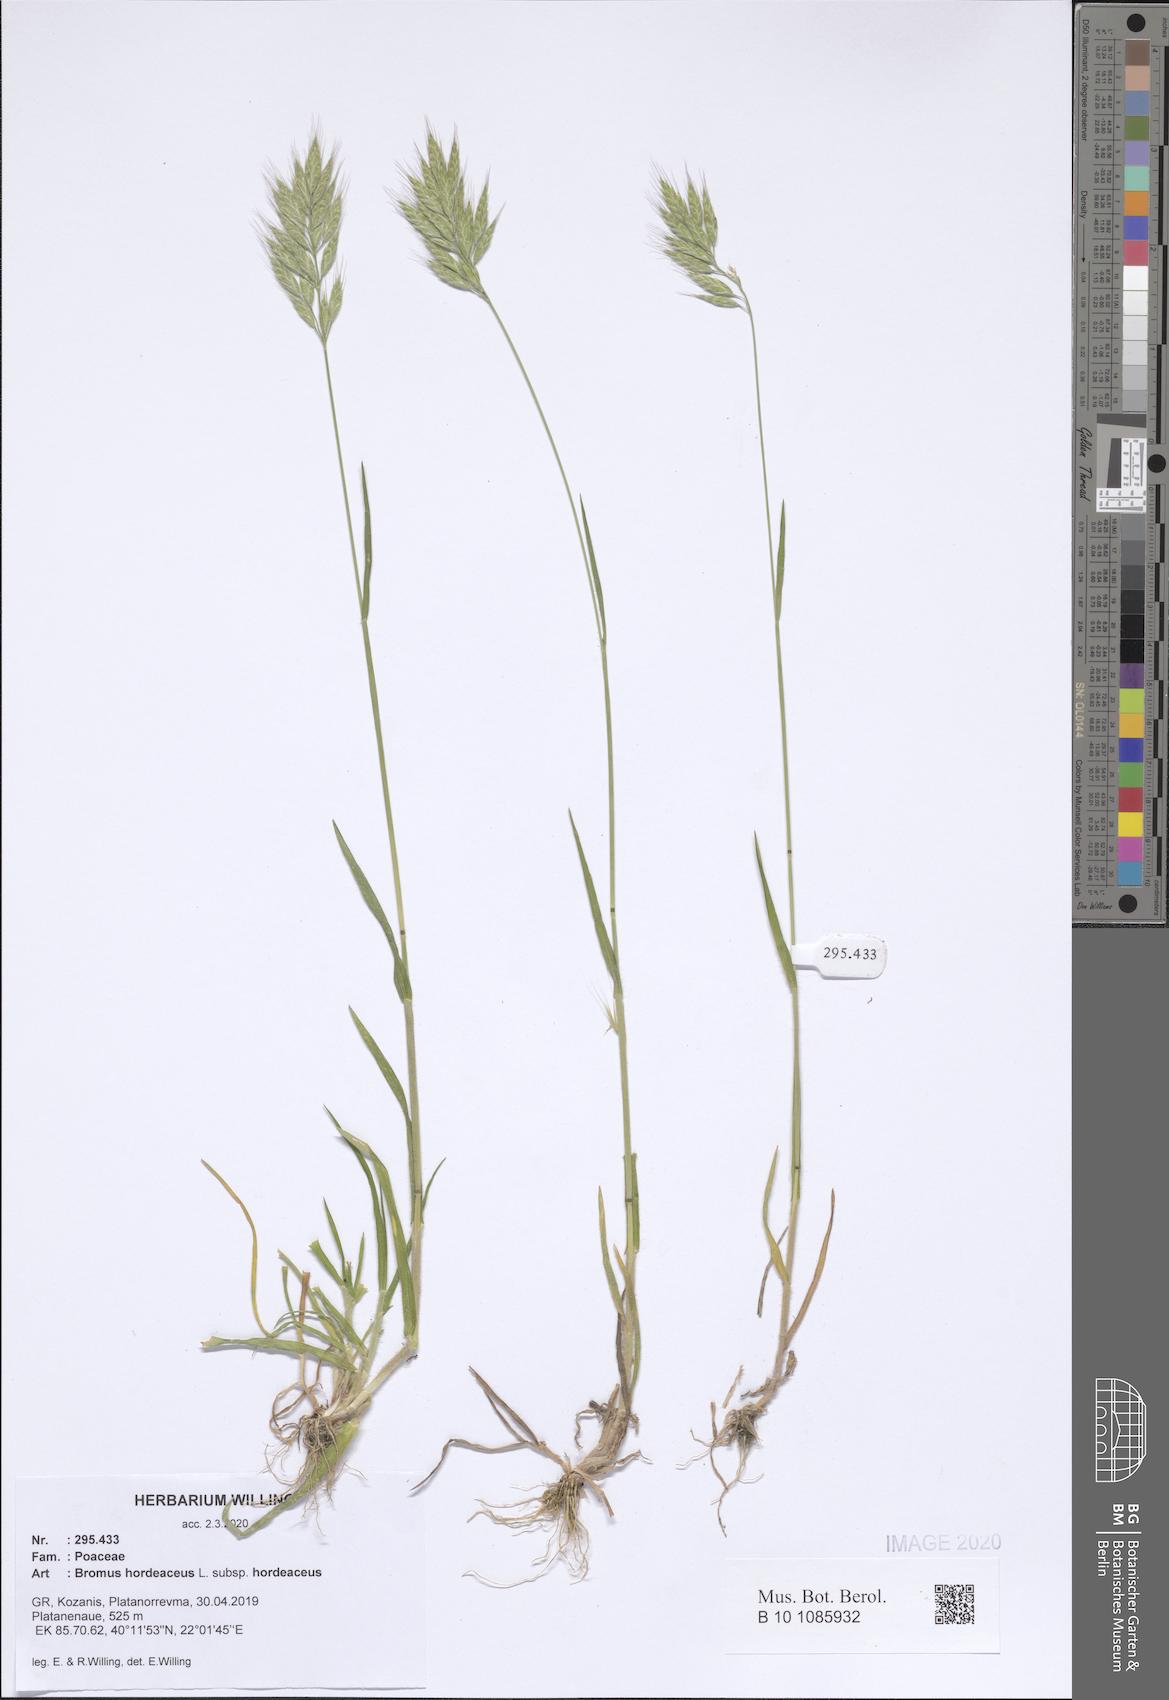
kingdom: Plantae
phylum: Tracheophyta
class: Liliopsida
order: Poales
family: Poaceae
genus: Bromus
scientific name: Bromus hordeaceus
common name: Soft brome
